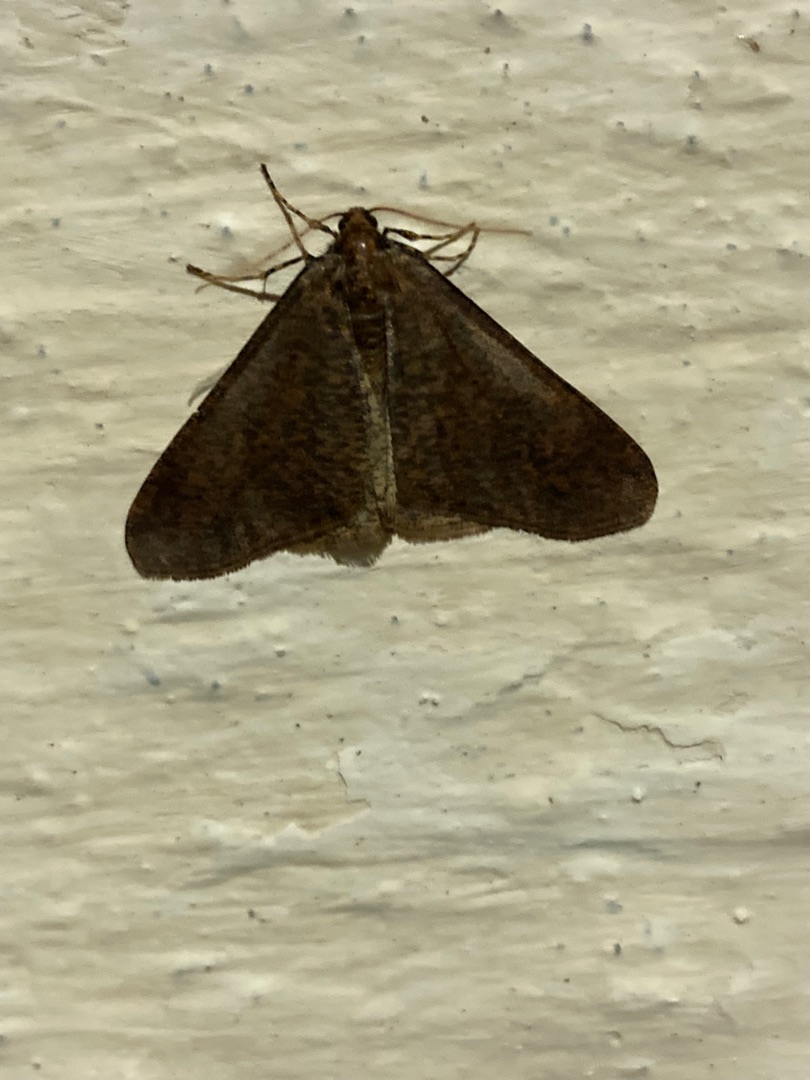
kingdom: Animalia
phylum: Arthropoda
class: Insecta
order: Lepidoptera
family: Geometridae
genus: Erannis
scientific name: Erannis defoliaria
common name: Stor frostmåler
